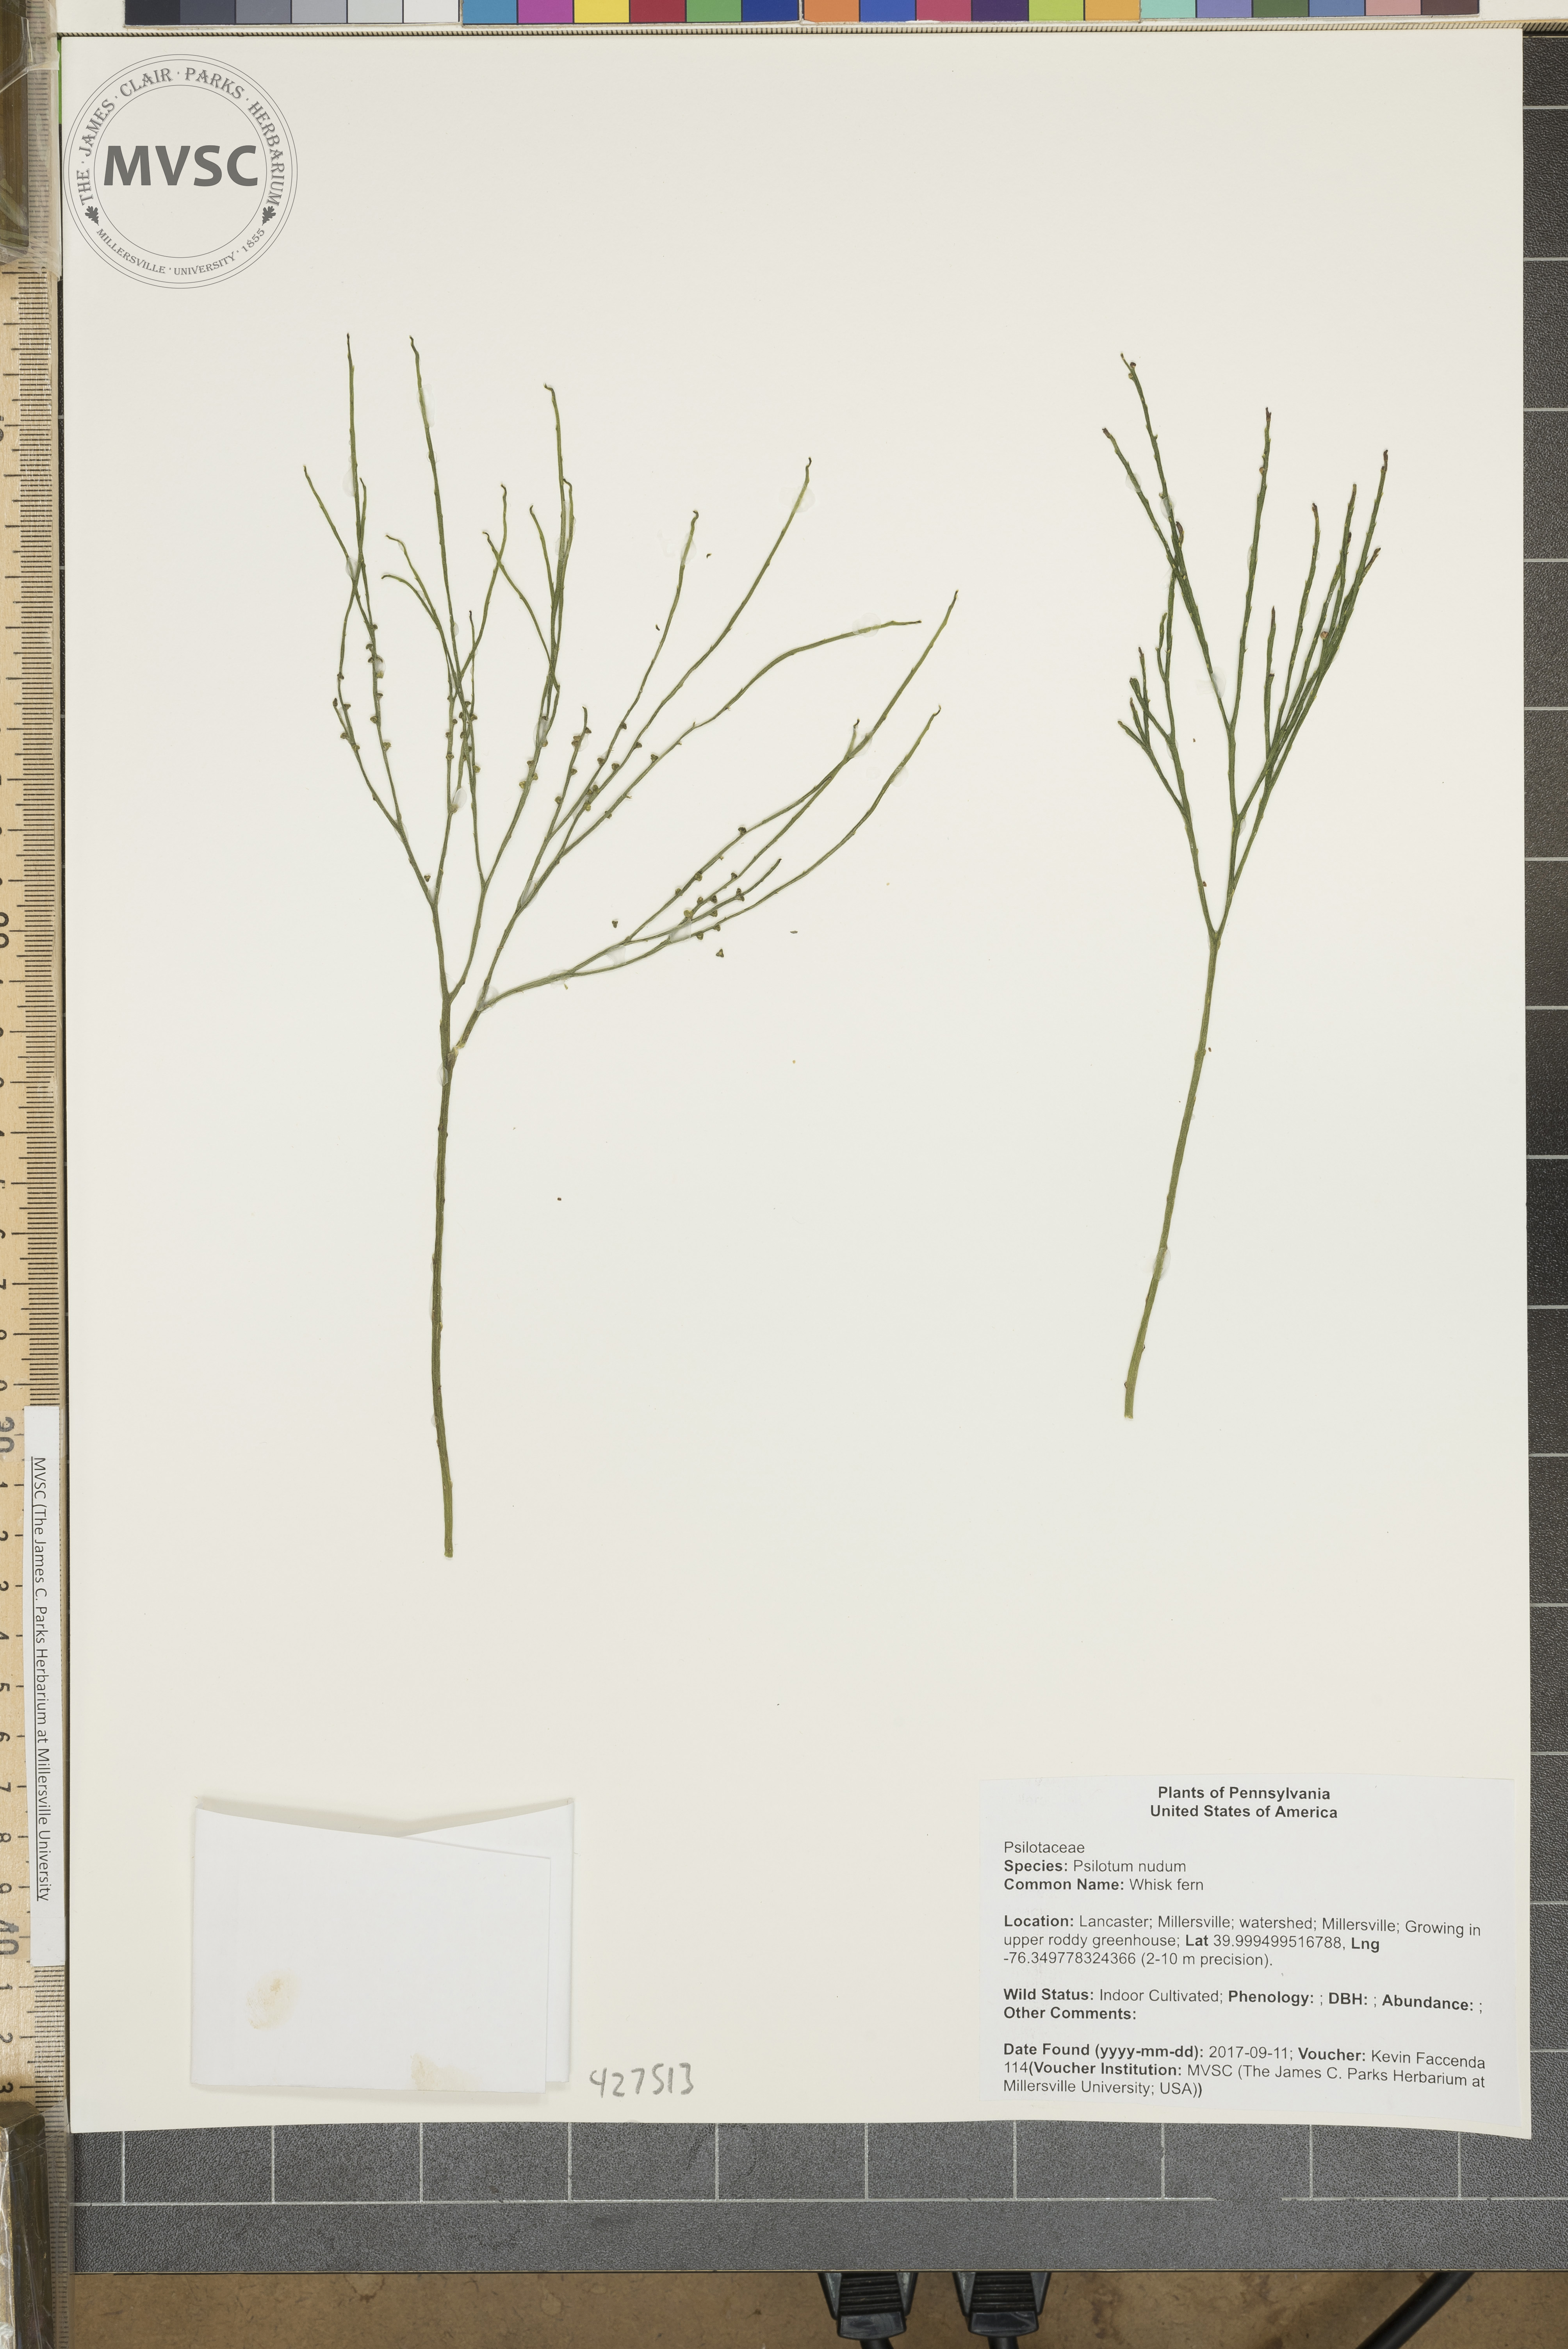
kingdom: Plantae
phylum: Tracheophyta
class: Polypodiopsida
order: Psilotales
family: Psilotaceae
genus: Psilotum
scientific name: Psilotum nudum
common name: Whisk fern
